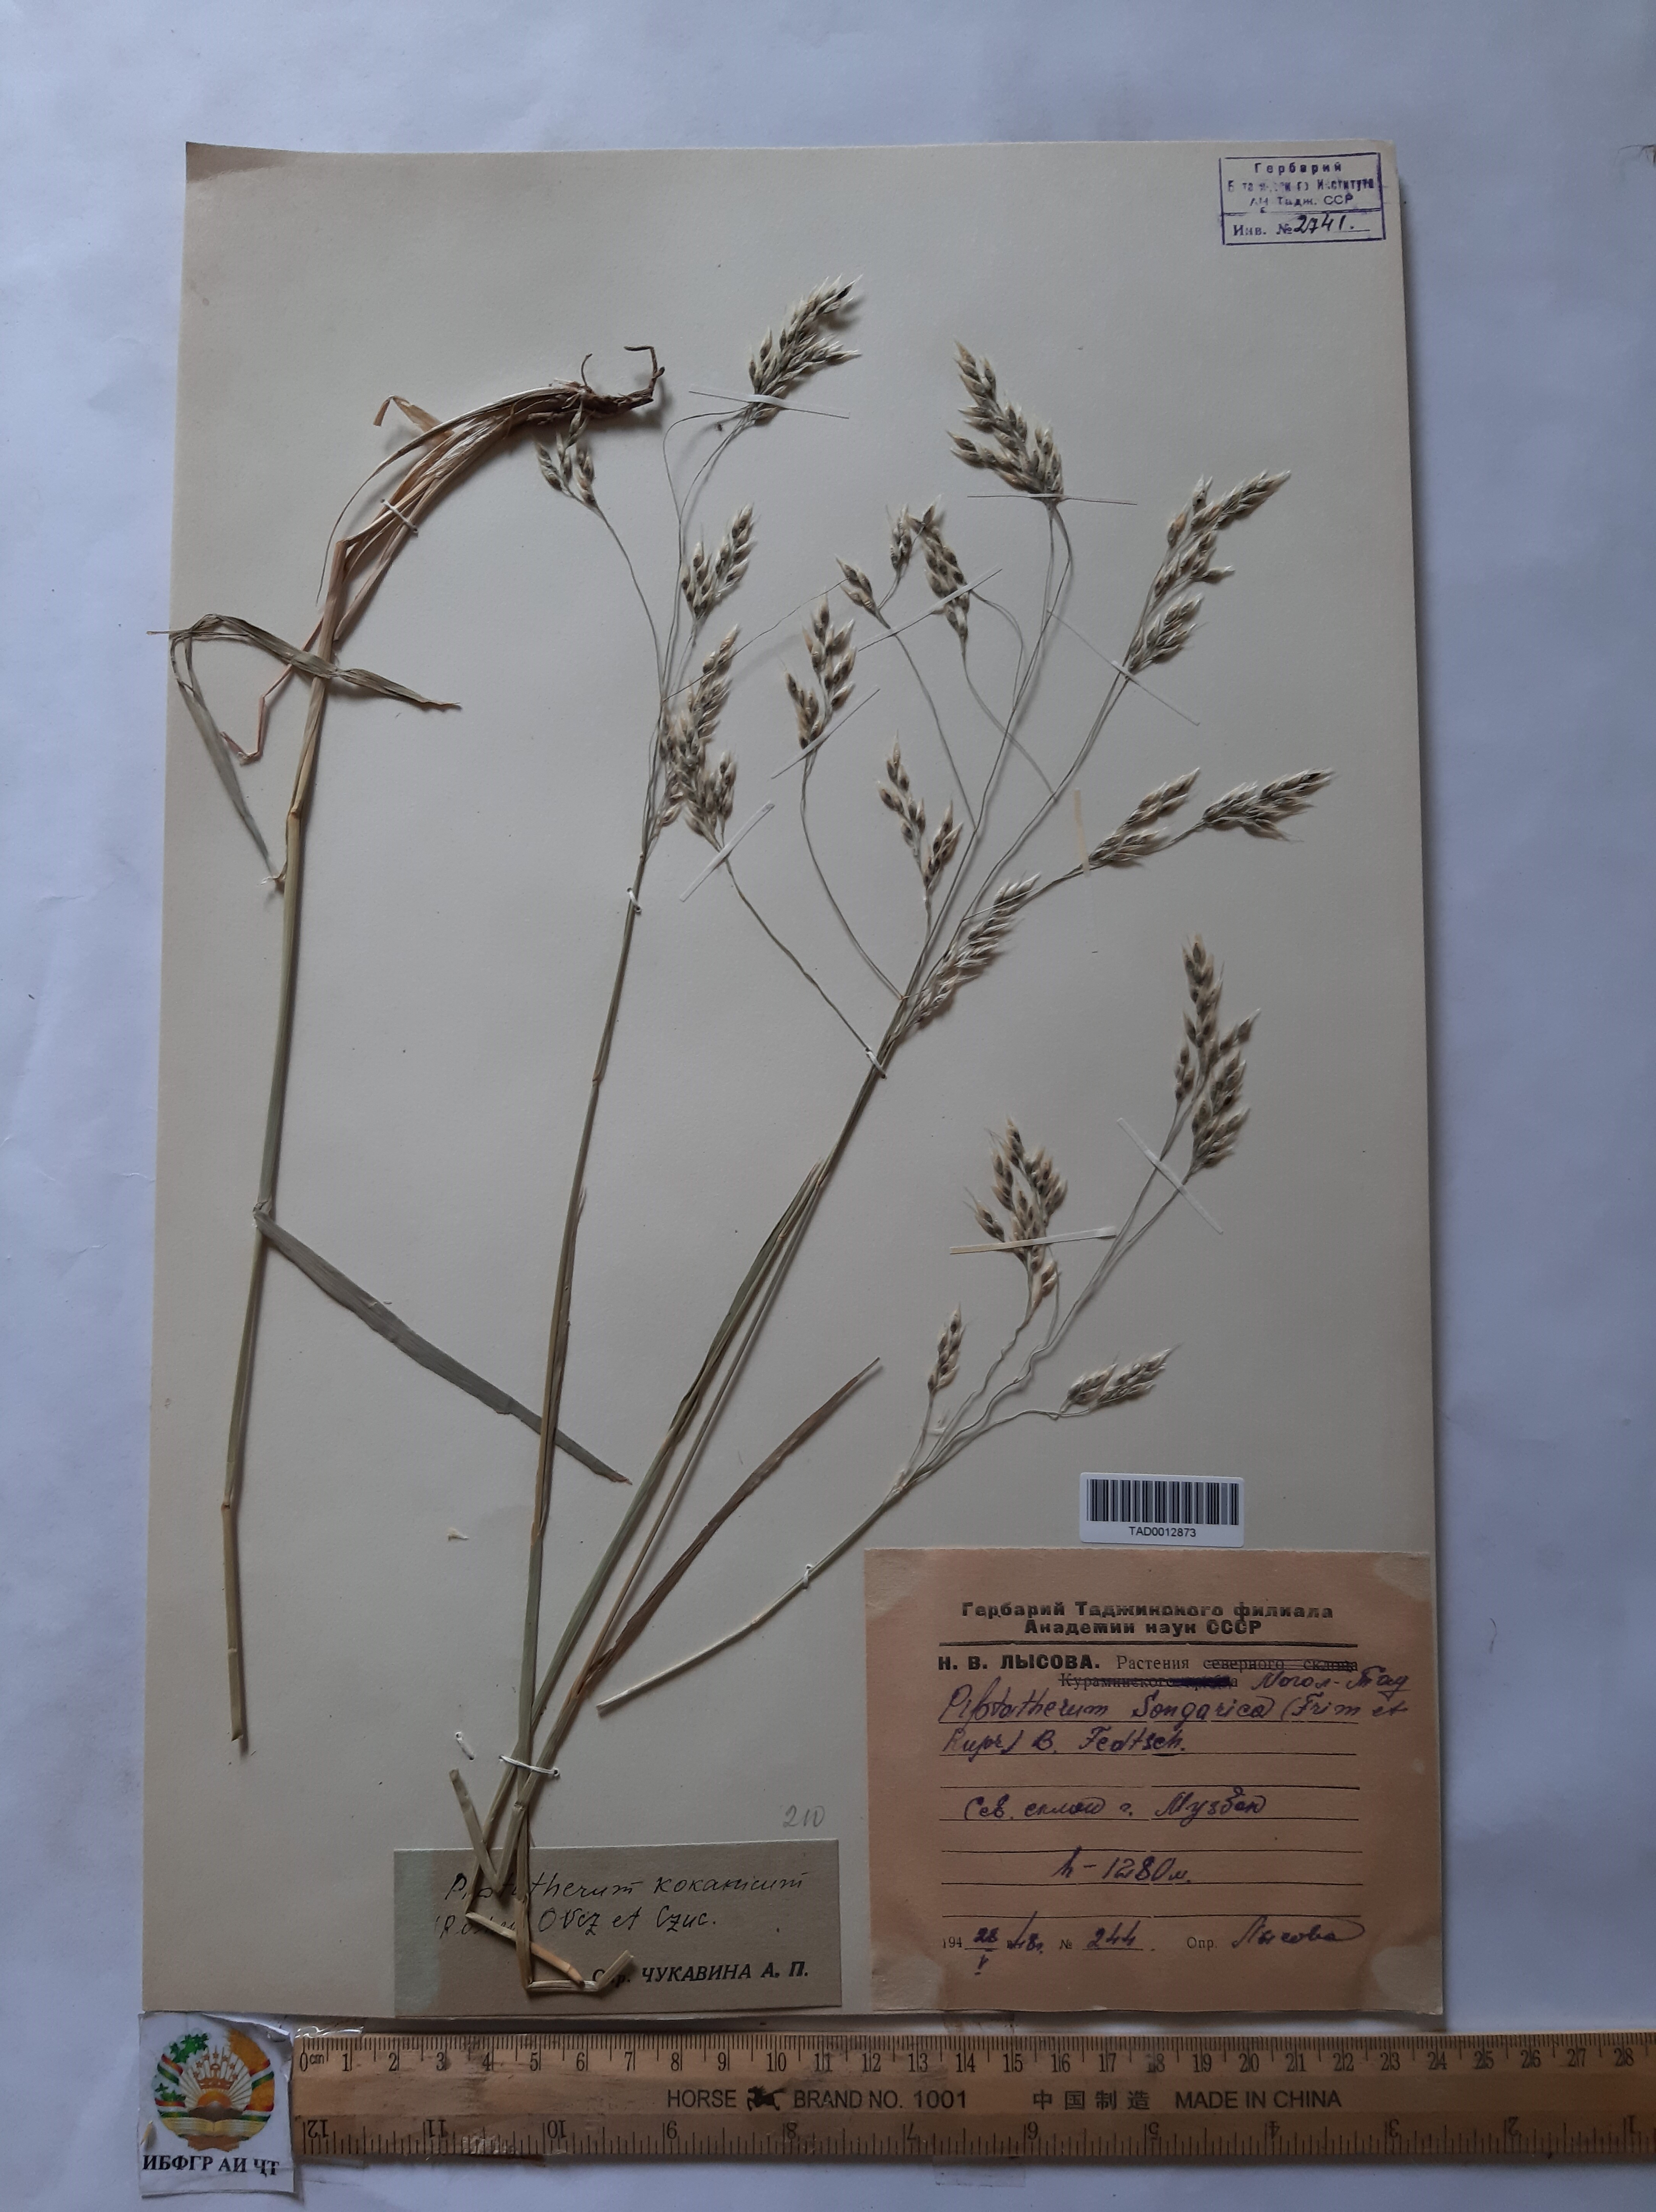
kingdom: Plantae
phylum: Tracheophyta
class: Liliopsida
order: Poales
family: Poaceae
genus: Piptatherum
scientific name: Piptatherum songaricum
